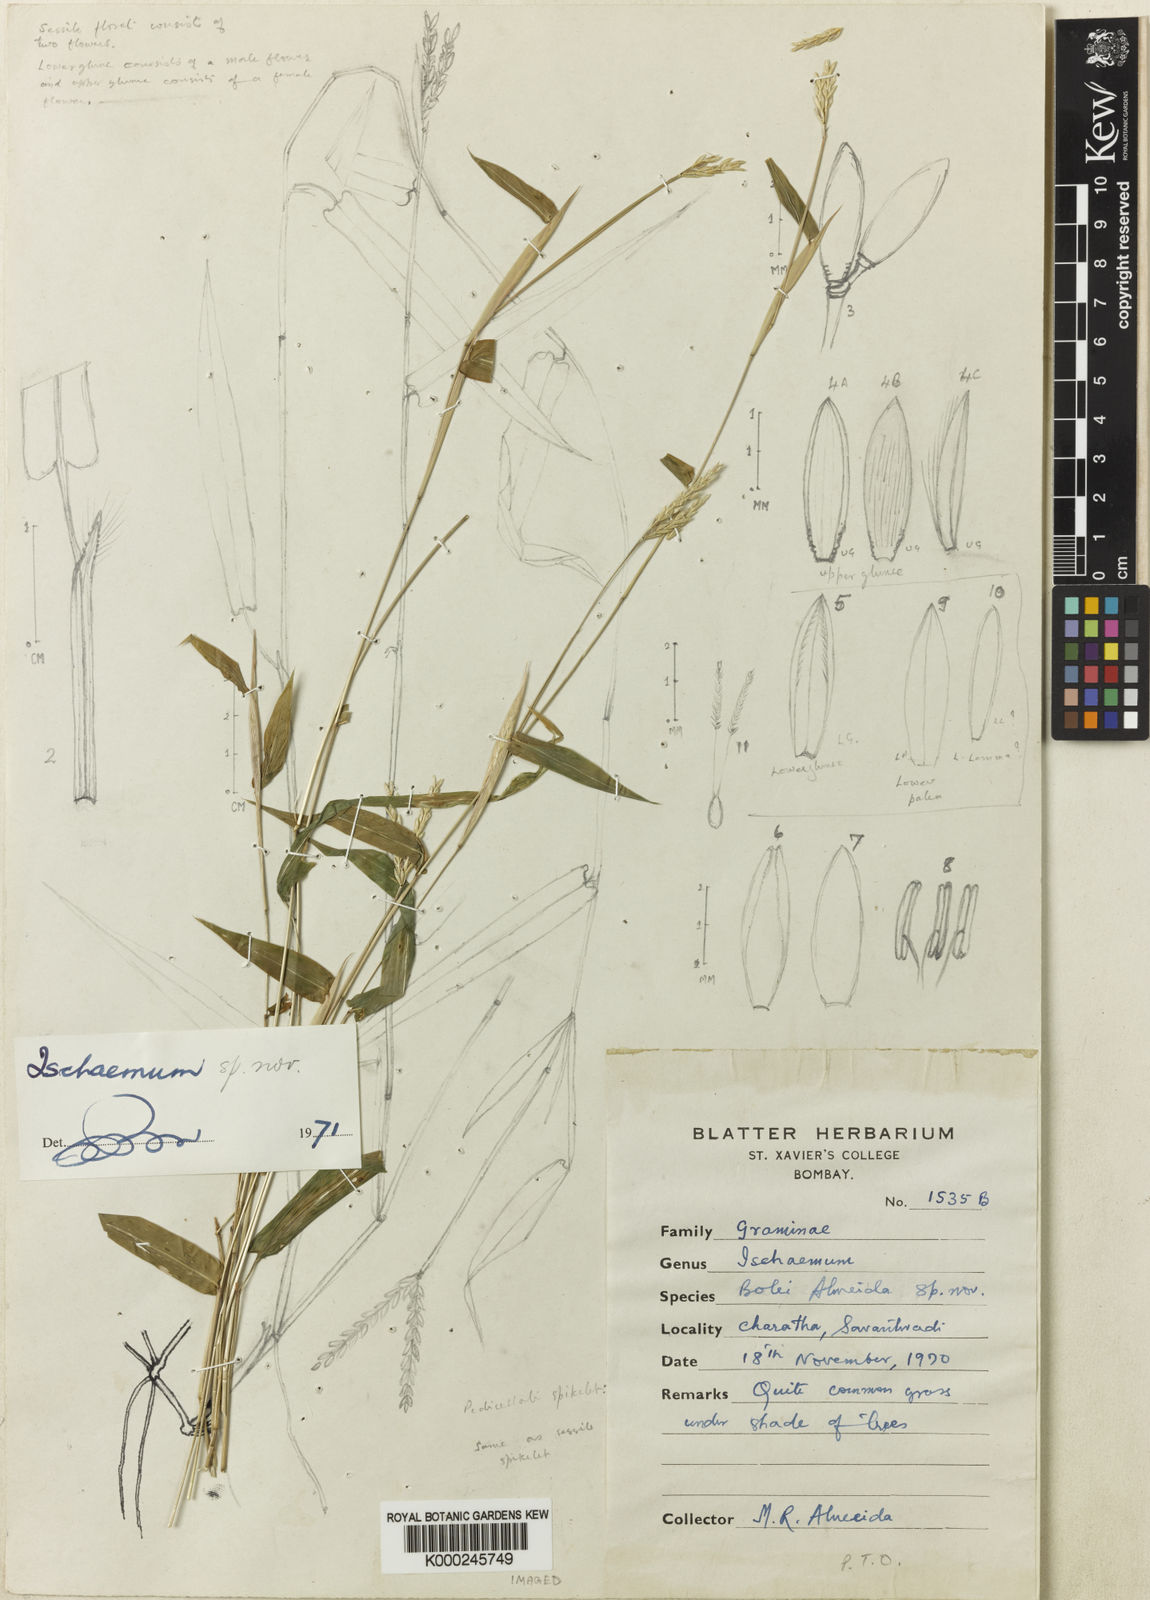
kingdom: Plantae
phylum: Tracheophyta
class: Liliopsida
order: Poales
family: Poaceae
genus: Ischaemum
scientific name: Ischaemum bolei
